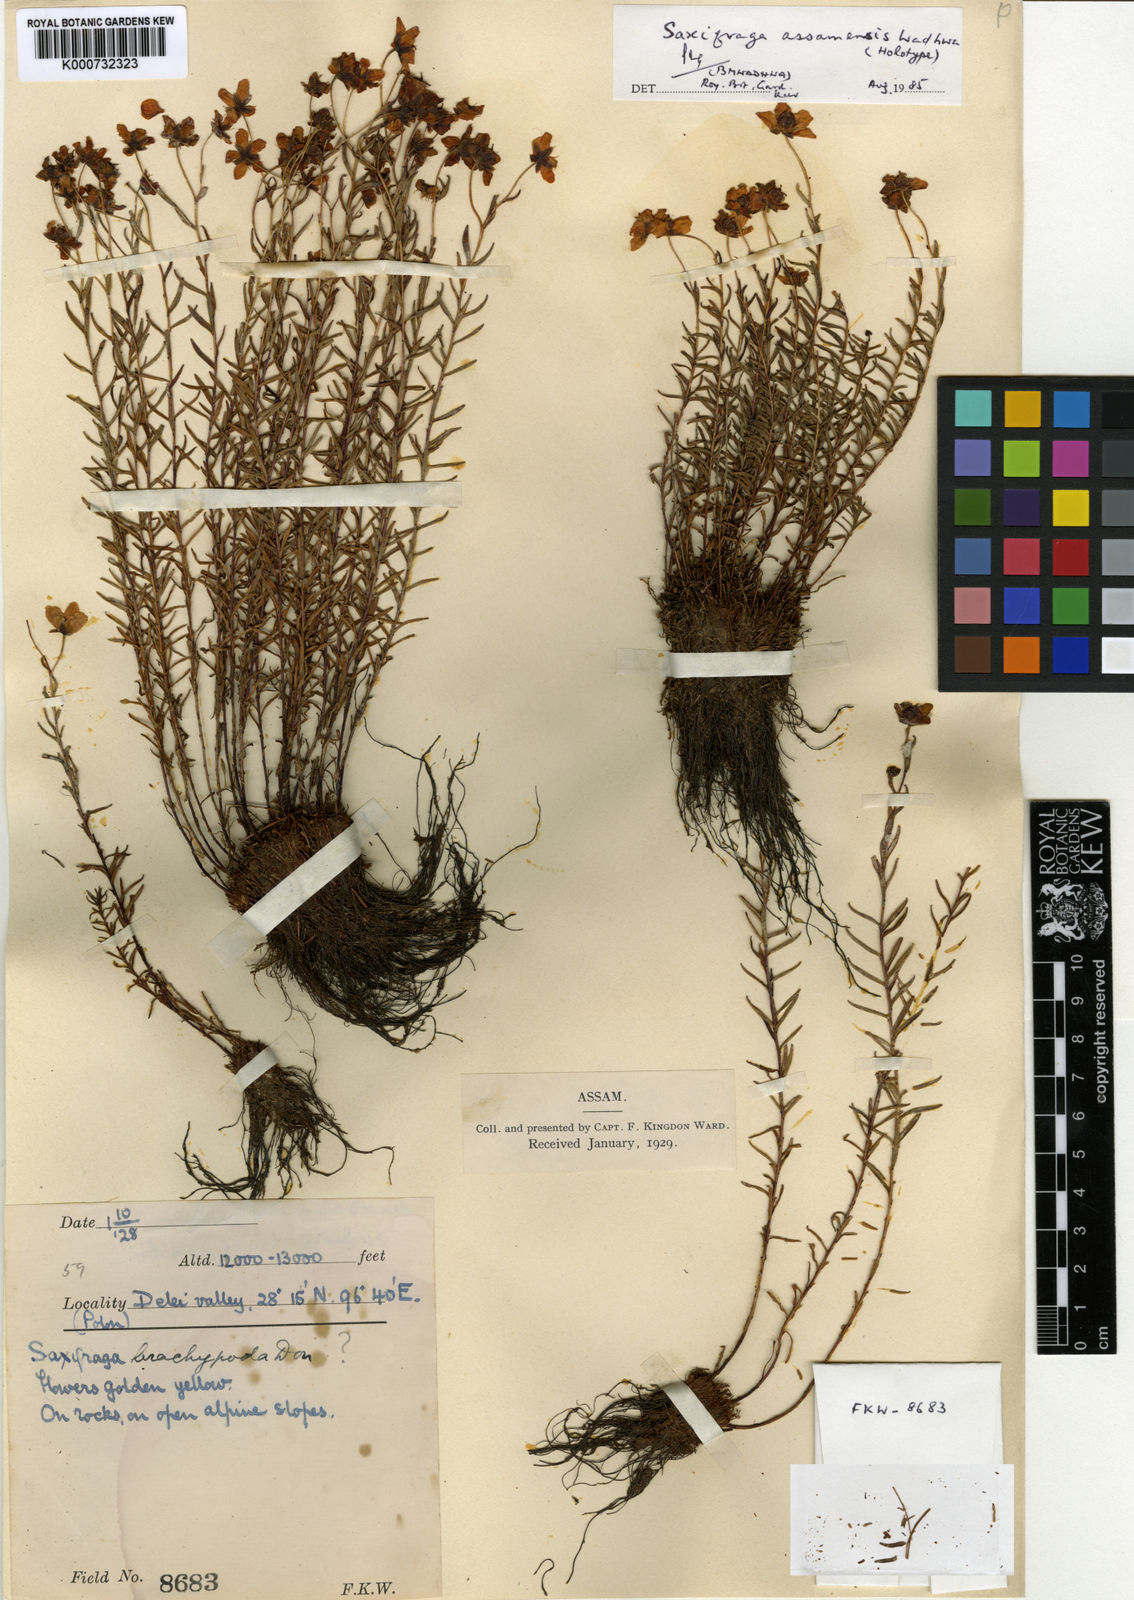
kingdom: Plantae
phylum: Tracheophyta
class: Magnoliopsida
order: Saxifragales
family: Saxifragaceae
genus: Saxifraga
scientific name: Saxifraga assamensis
